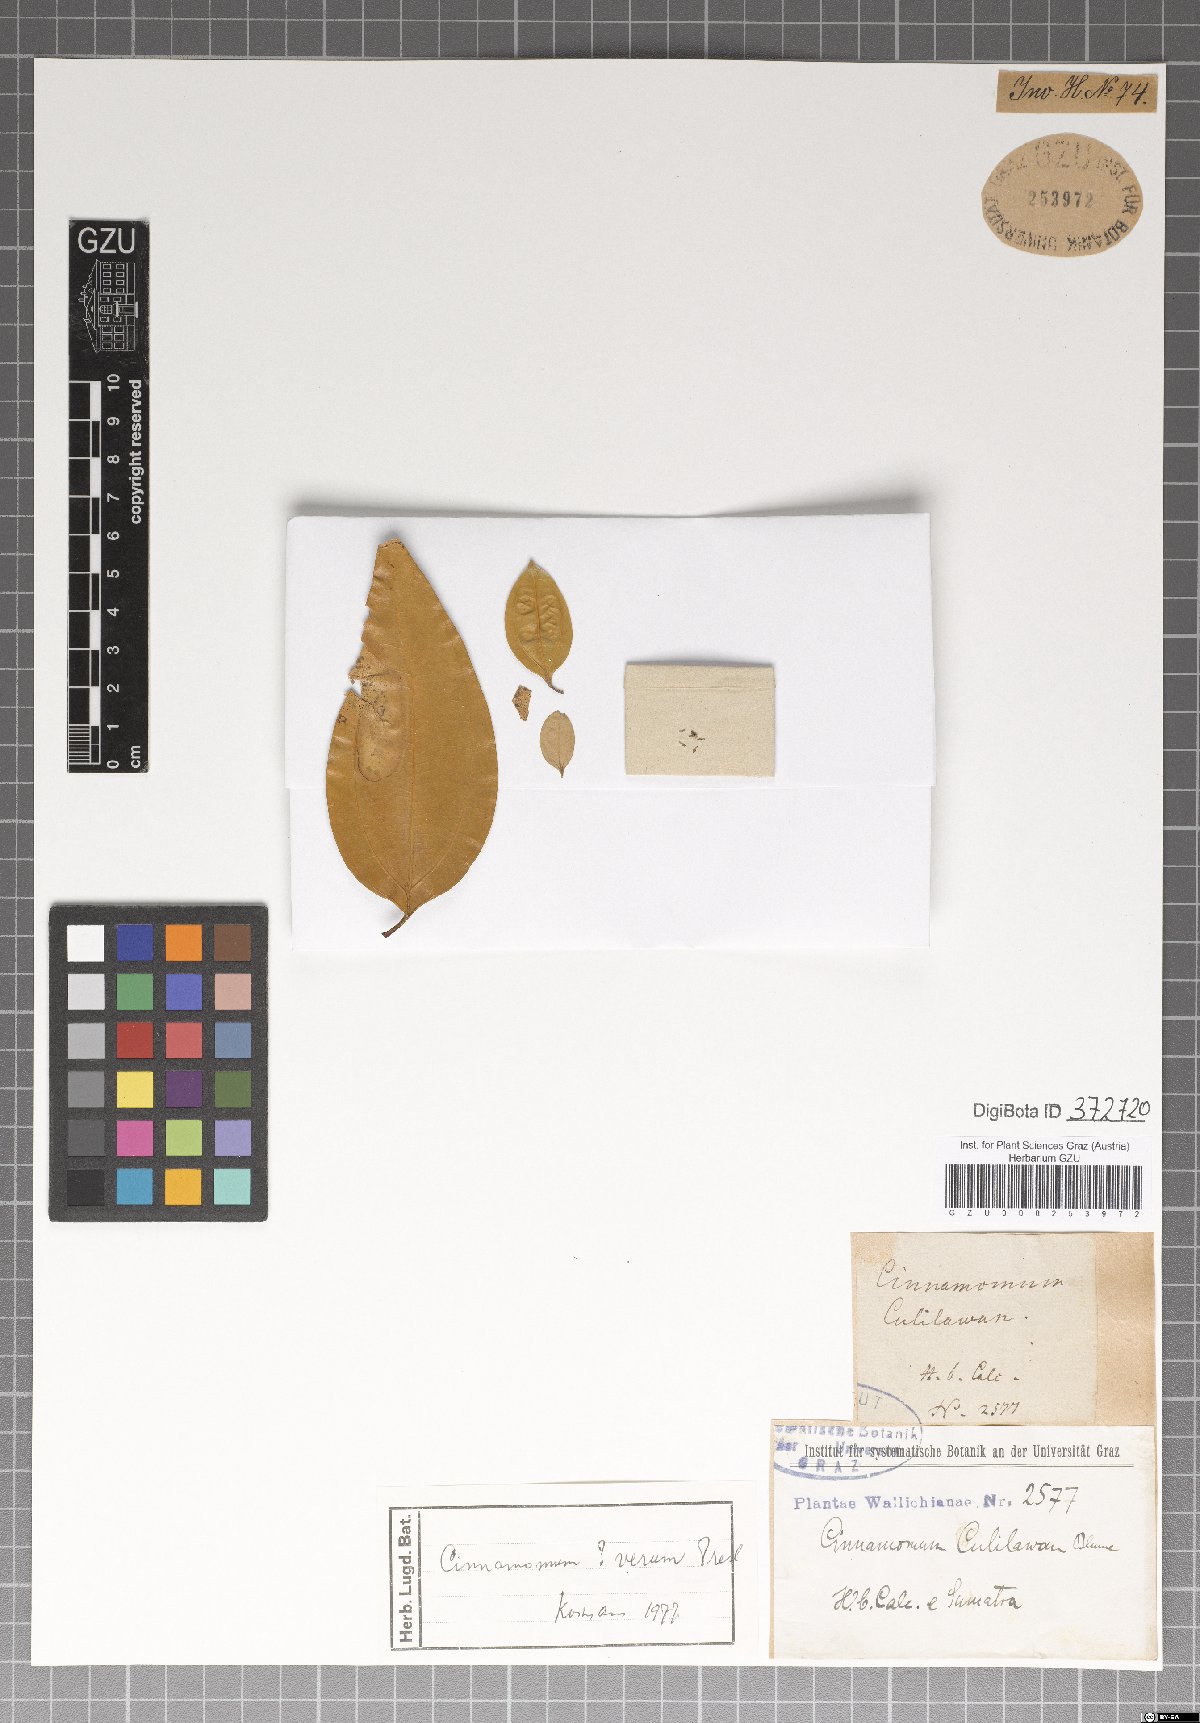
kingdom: Plantae
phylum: Tracheophyta
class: Magnoliopsida
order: Laurales
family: Lauraceae
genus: Cinnamomum
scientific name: Cinnamomum verum
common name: Cinnamon
